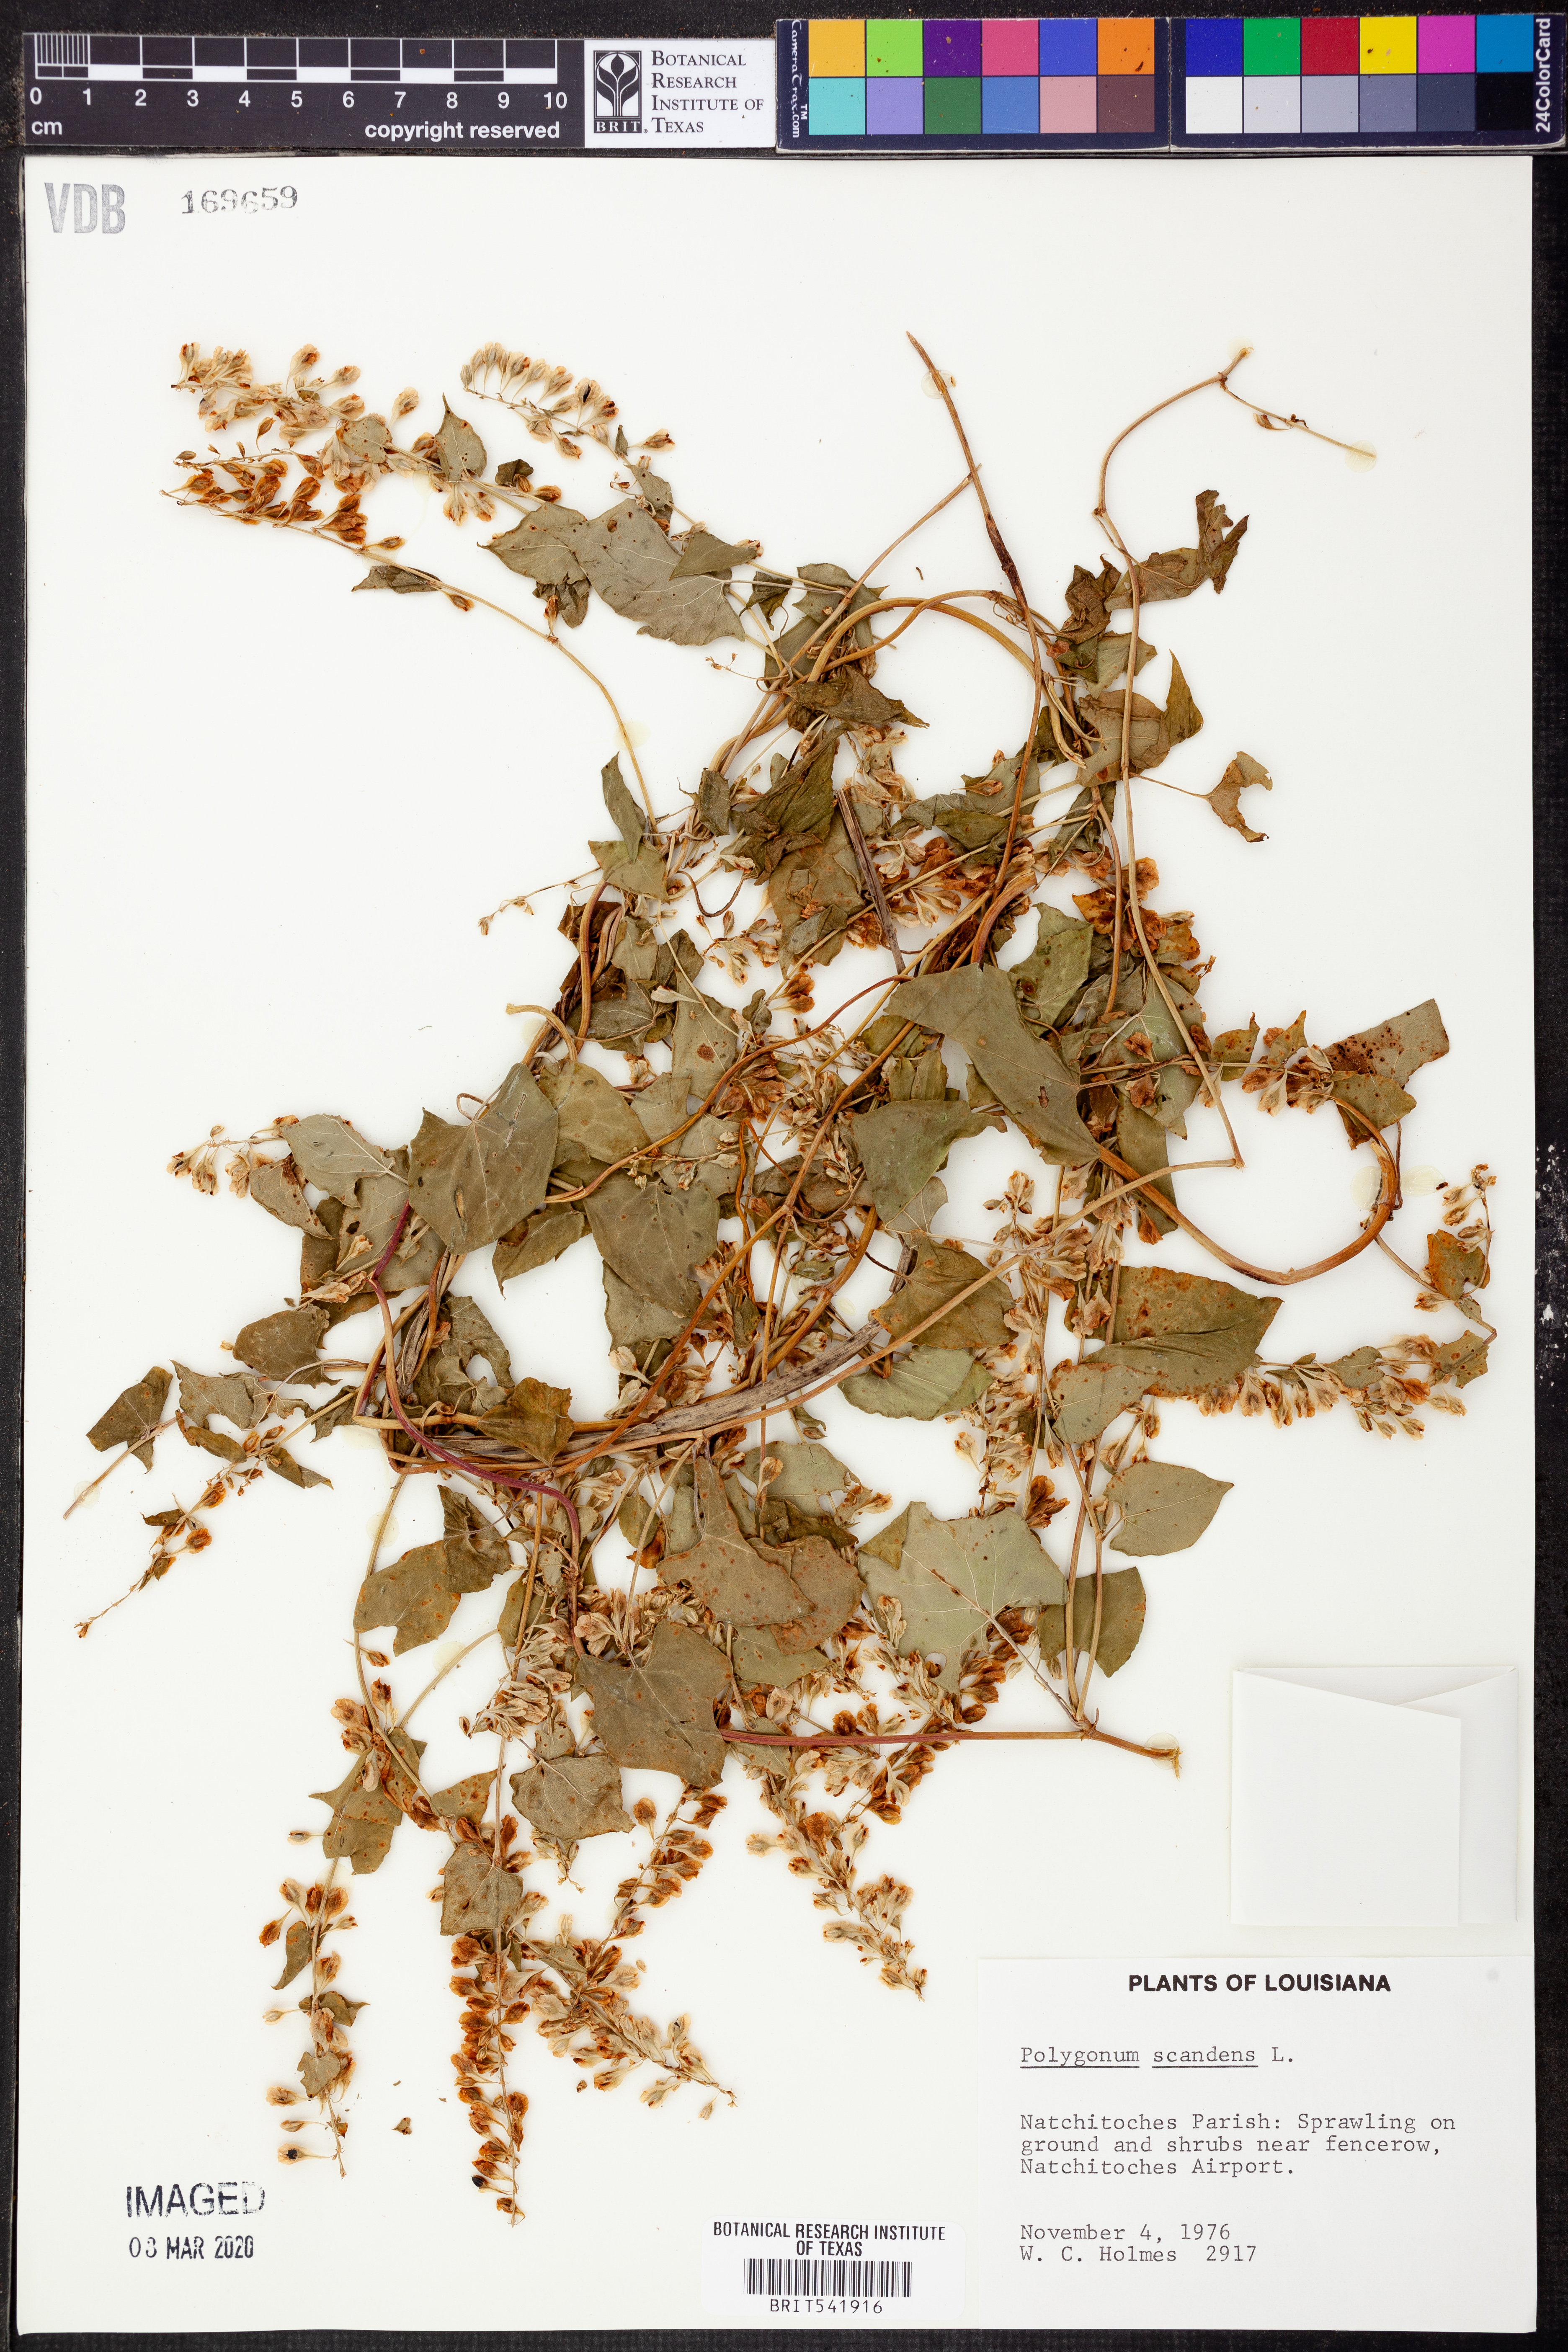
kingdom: Plantae
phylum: Tracheophyta
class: Magnoliopsida
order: Caryophyllales
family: Polygonaceae
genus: Fallopia
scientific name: Fallopia scandens
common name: Climbing false buckwheat
